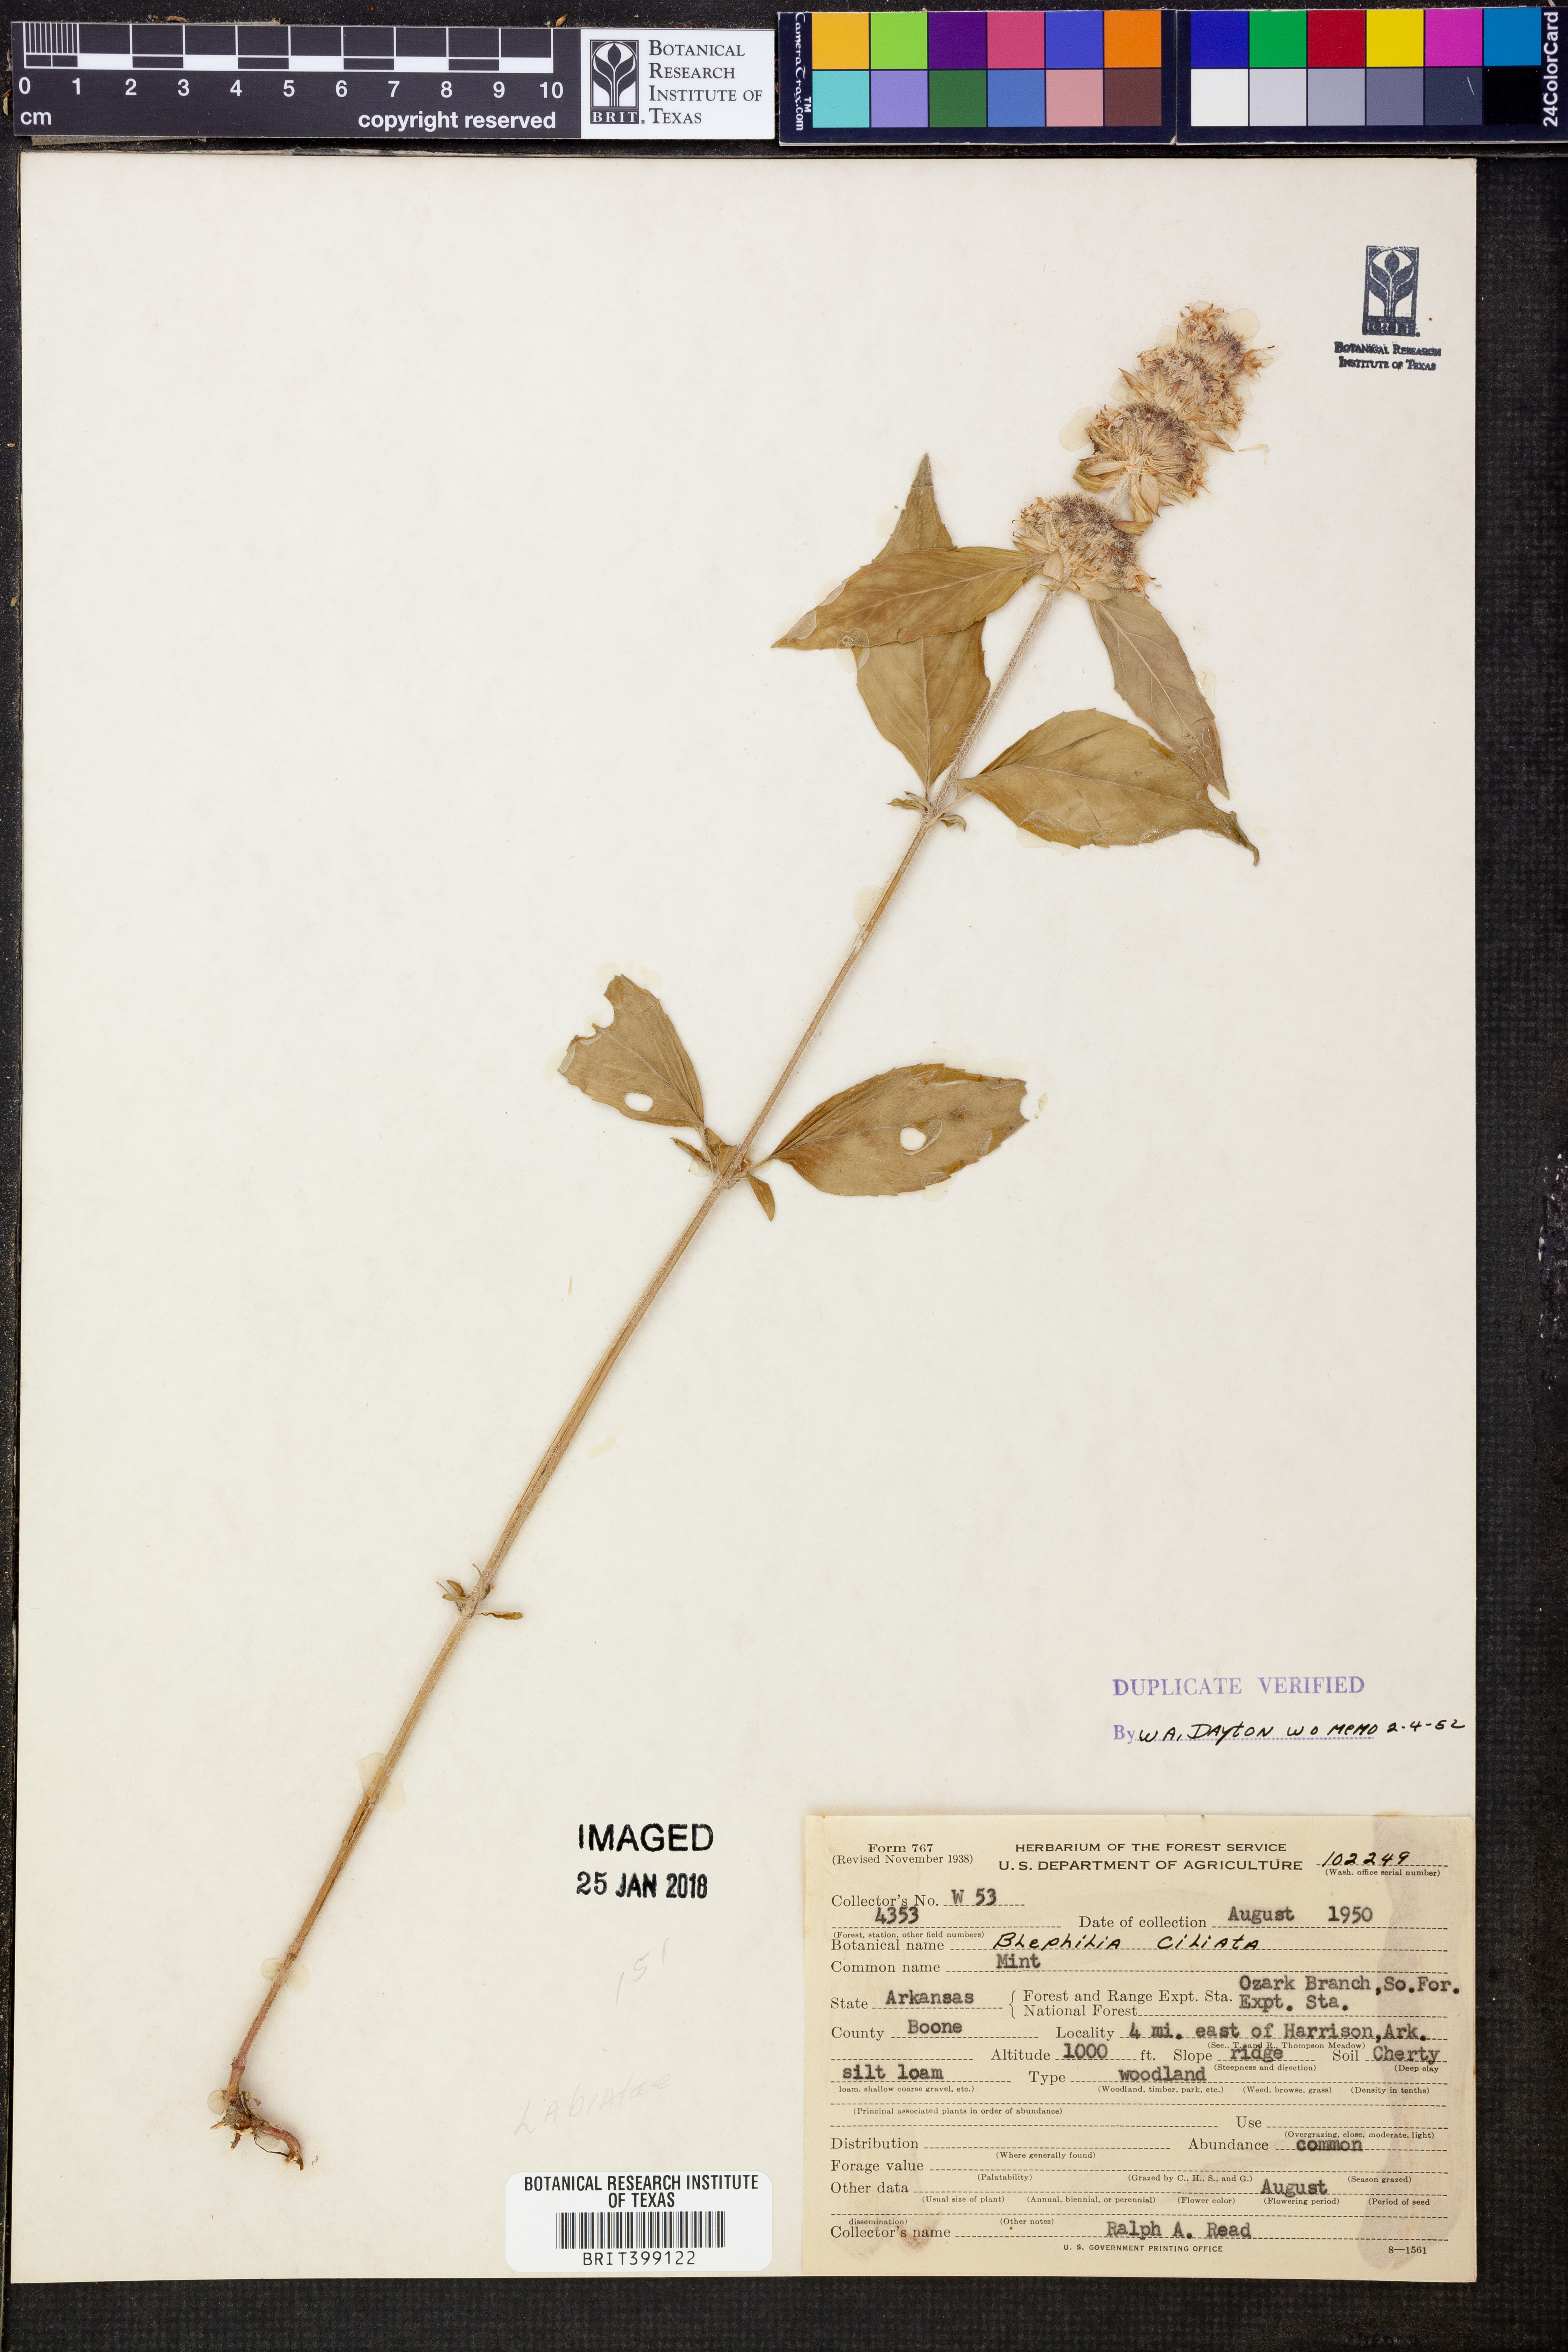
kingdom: Plantae
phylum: Tracheophyta
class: Magnoliopsida
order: Lamiales
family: Lamiaceae
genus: Blephilia
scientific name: Blephilia ciliata
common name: Downy blephilia
